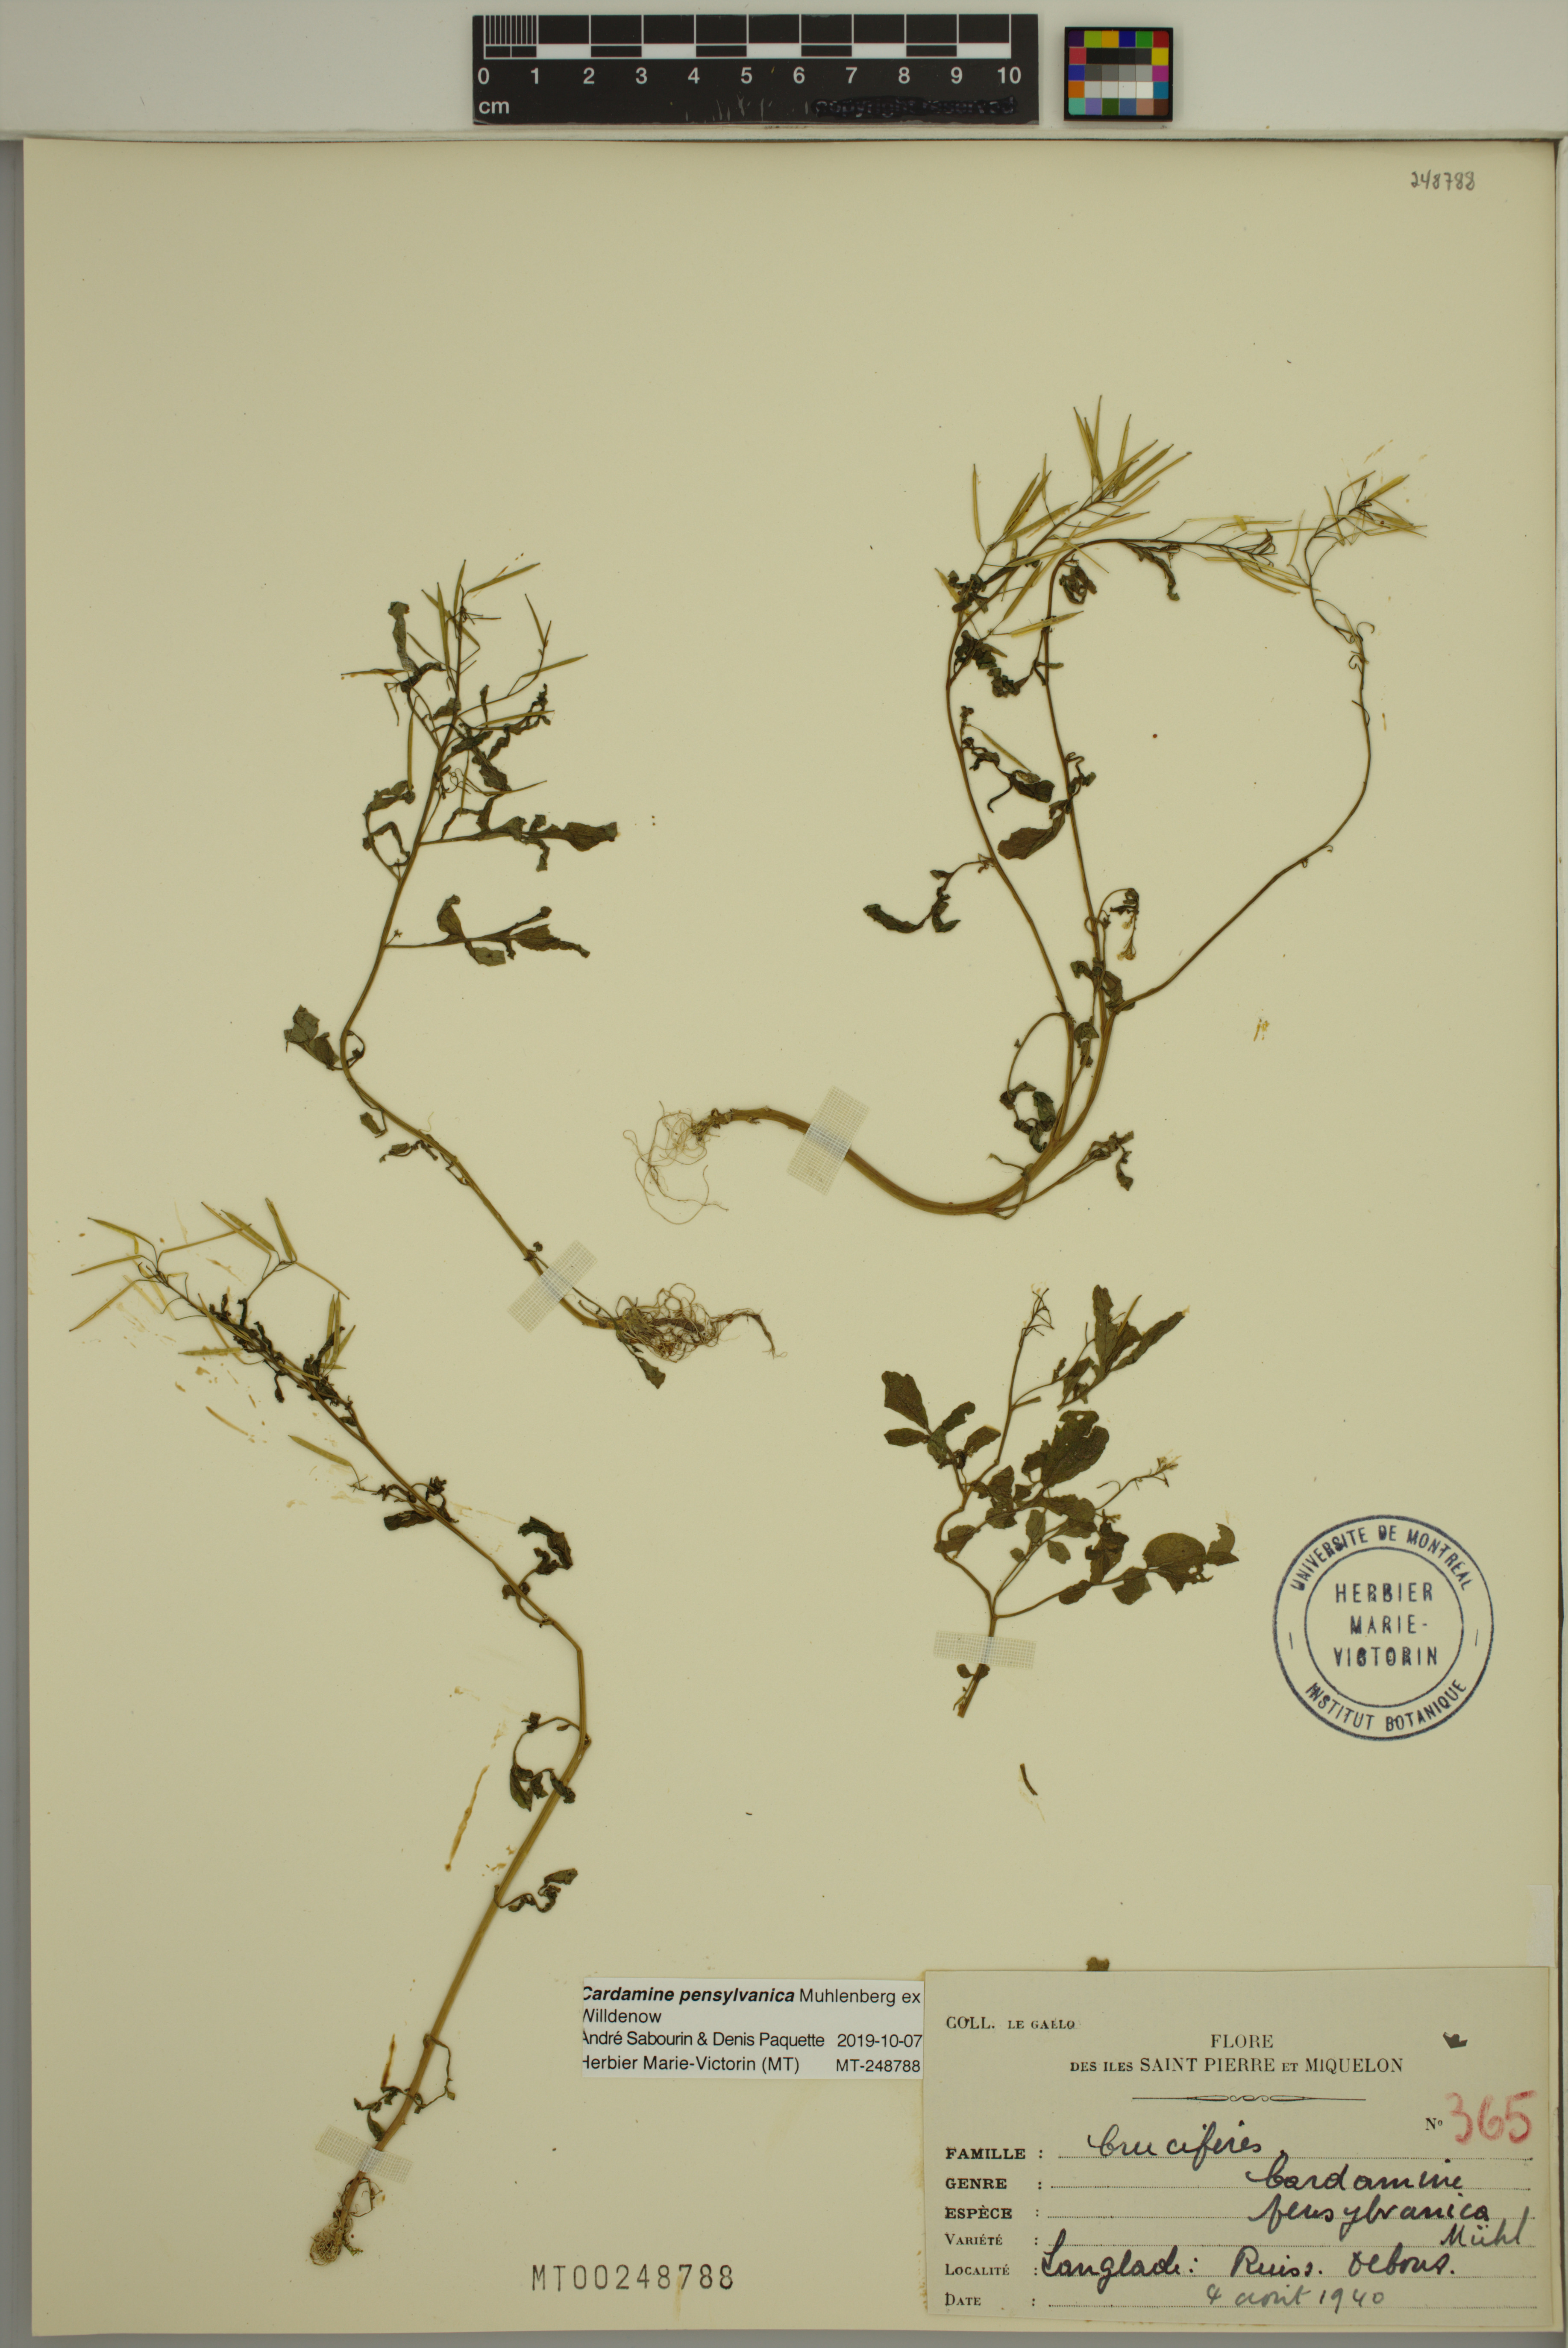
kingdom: Plantae
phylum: Tracheophyta
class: Magnoliopsida
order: Brassicales
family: Brassicaceae
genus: Cardamine
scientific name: Cardamine pensylvanica
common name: Pennsylvania bittercress
